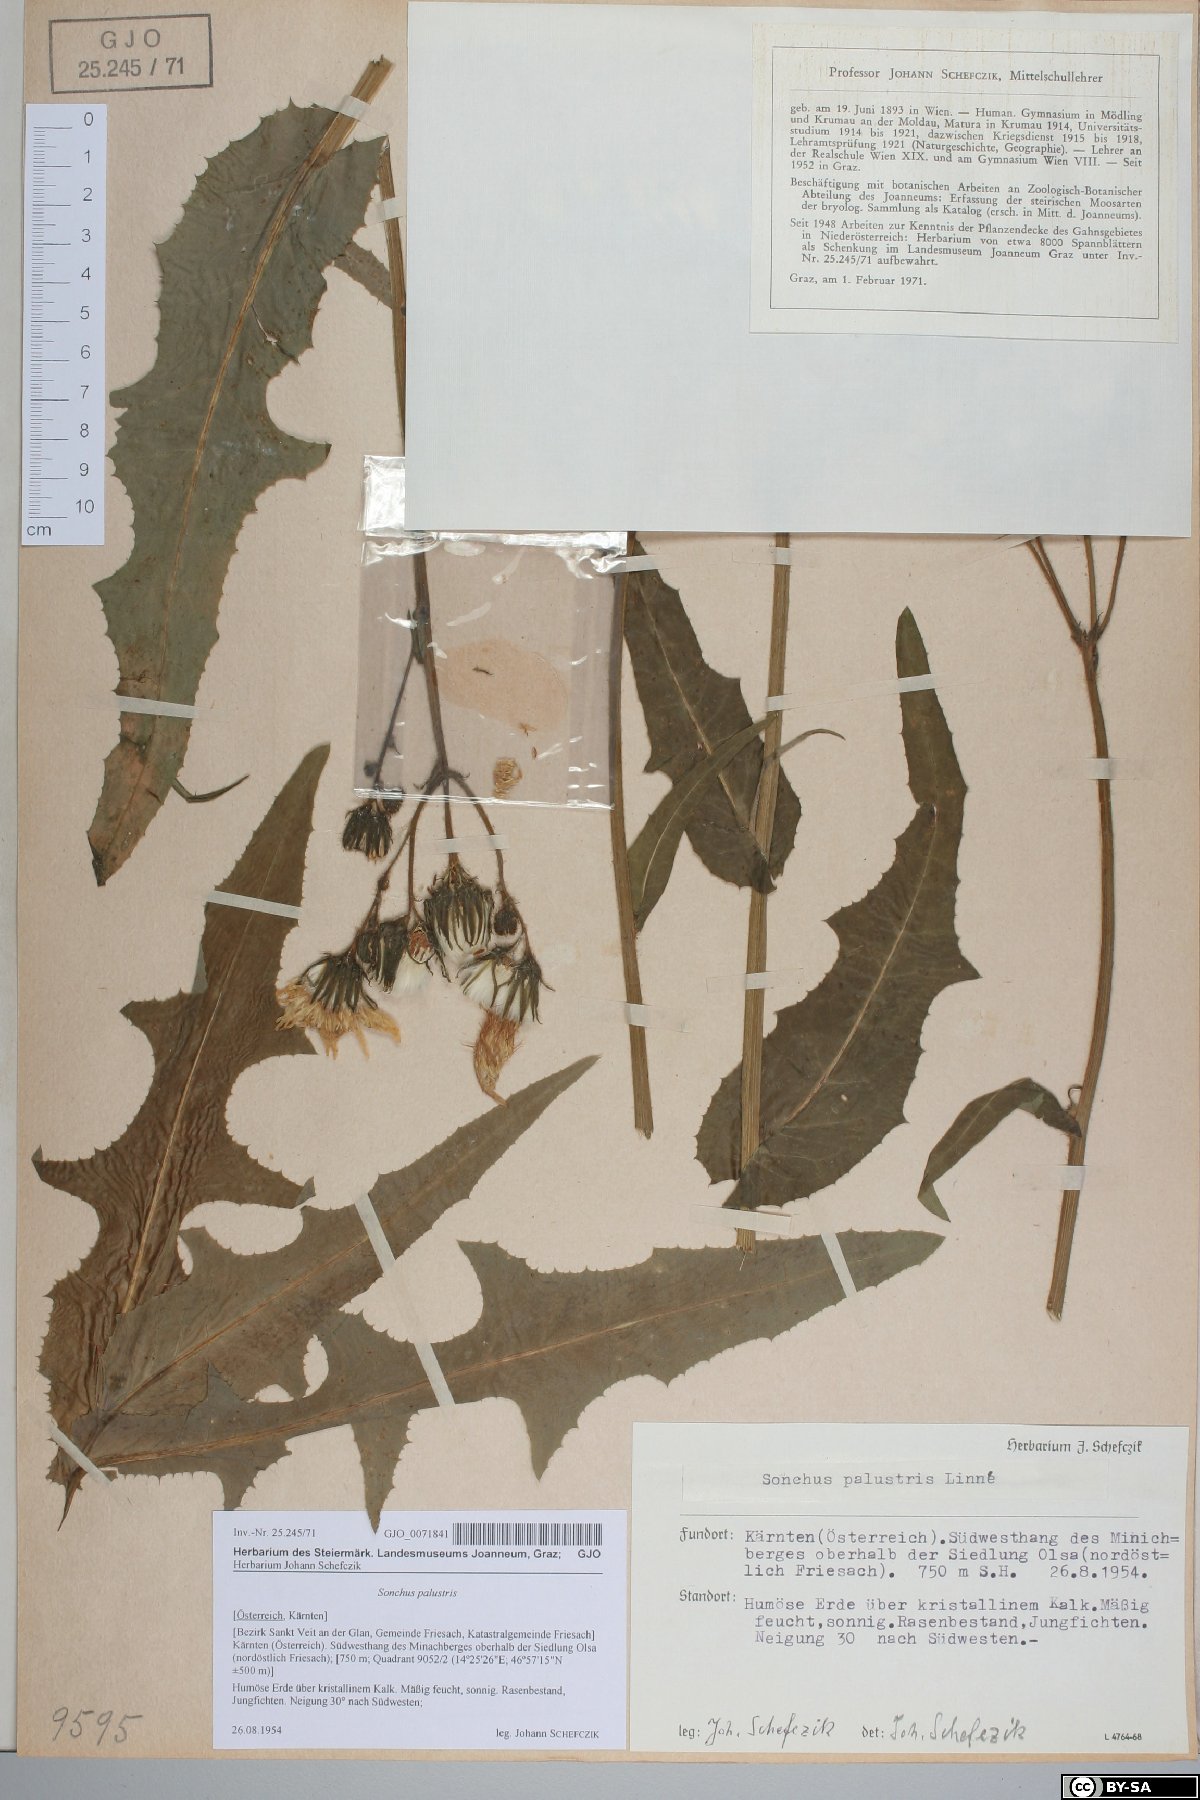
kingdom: Plantae
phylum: Tracheophyta
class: Magnoliopsida
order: Asterales
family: Asteraceae
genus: Sonchus
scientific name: Sonchus palustris
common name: Marsh sow-thistle
